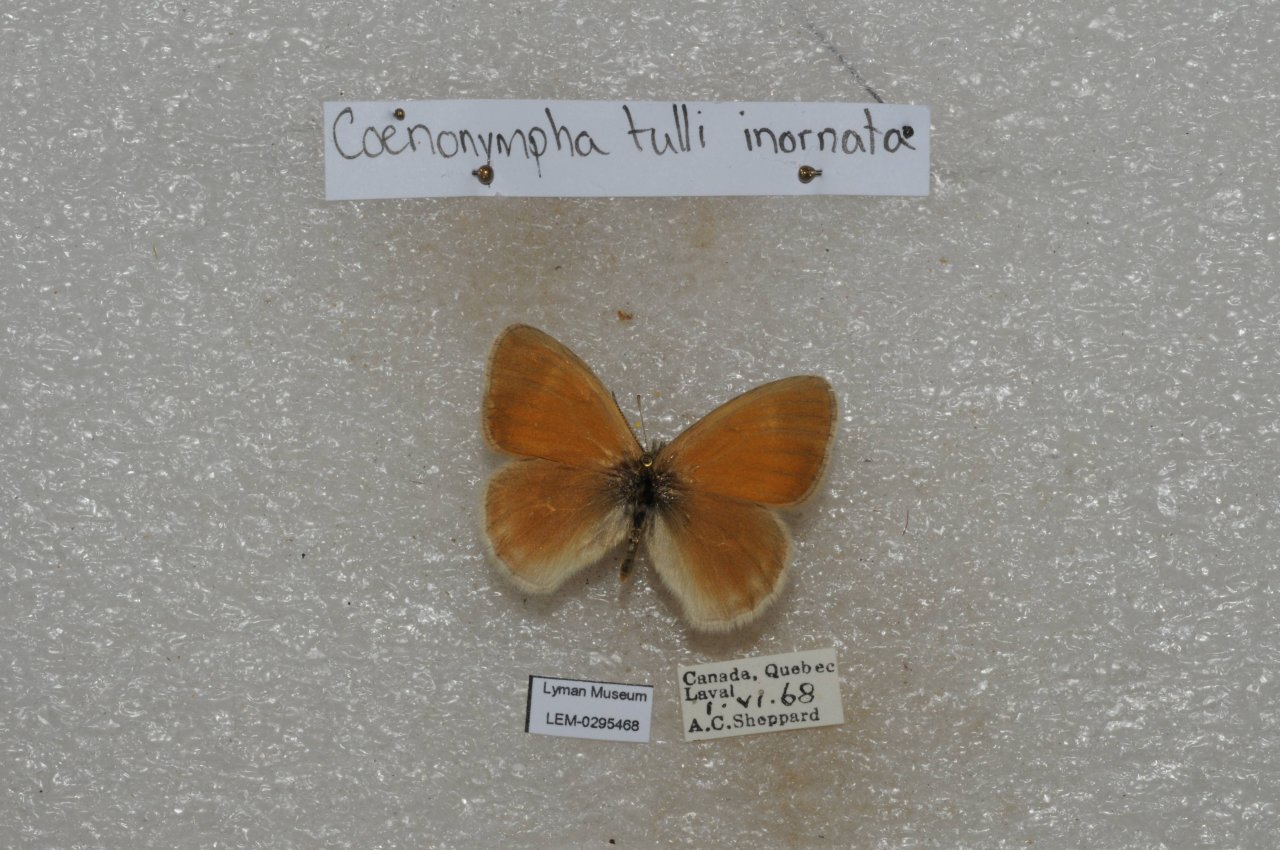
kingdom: Animalia
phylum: Arthropoda
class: Insecta
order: Lepidoptera
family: Nymphalidae
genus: Coenonympha
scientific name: Coenonympha tullia
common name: Large Heath
